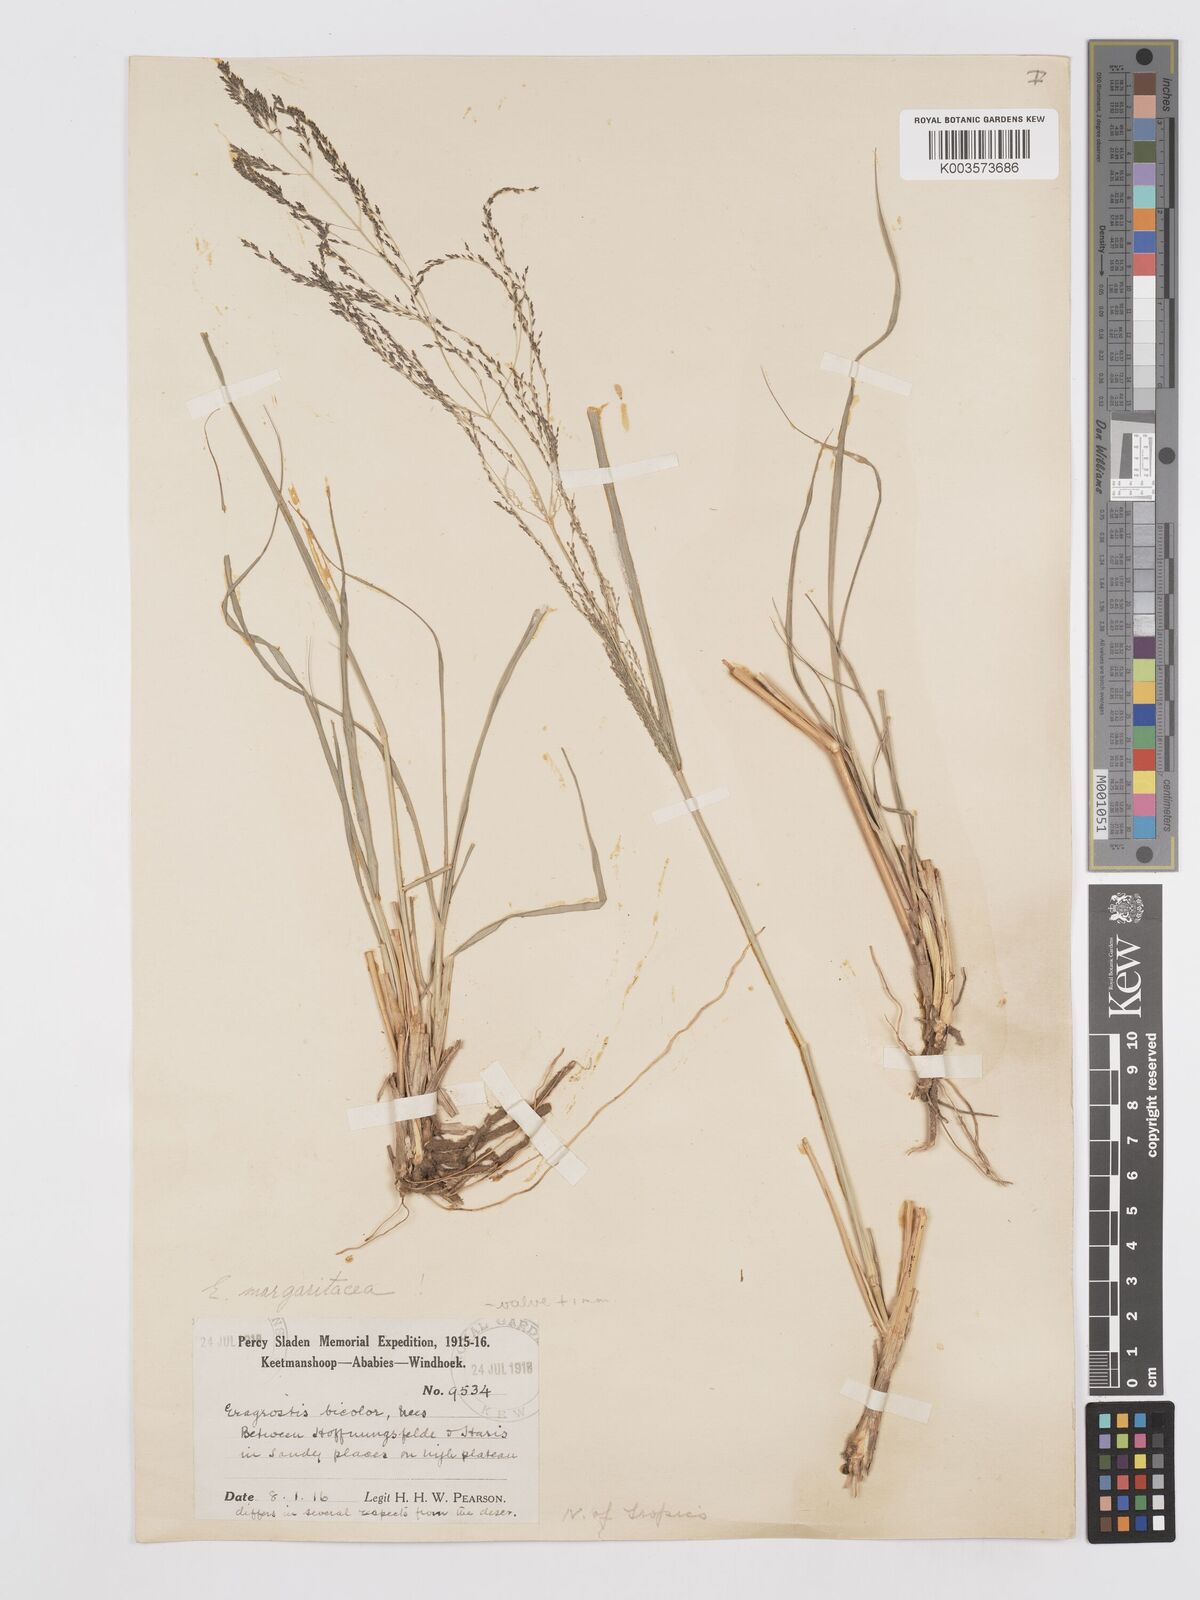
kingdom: Plantae
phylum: Tracheophyta
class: Liliopsida
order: Poales
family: Poaceae
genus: Eragrostis
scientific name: Eragrostis rotifer
